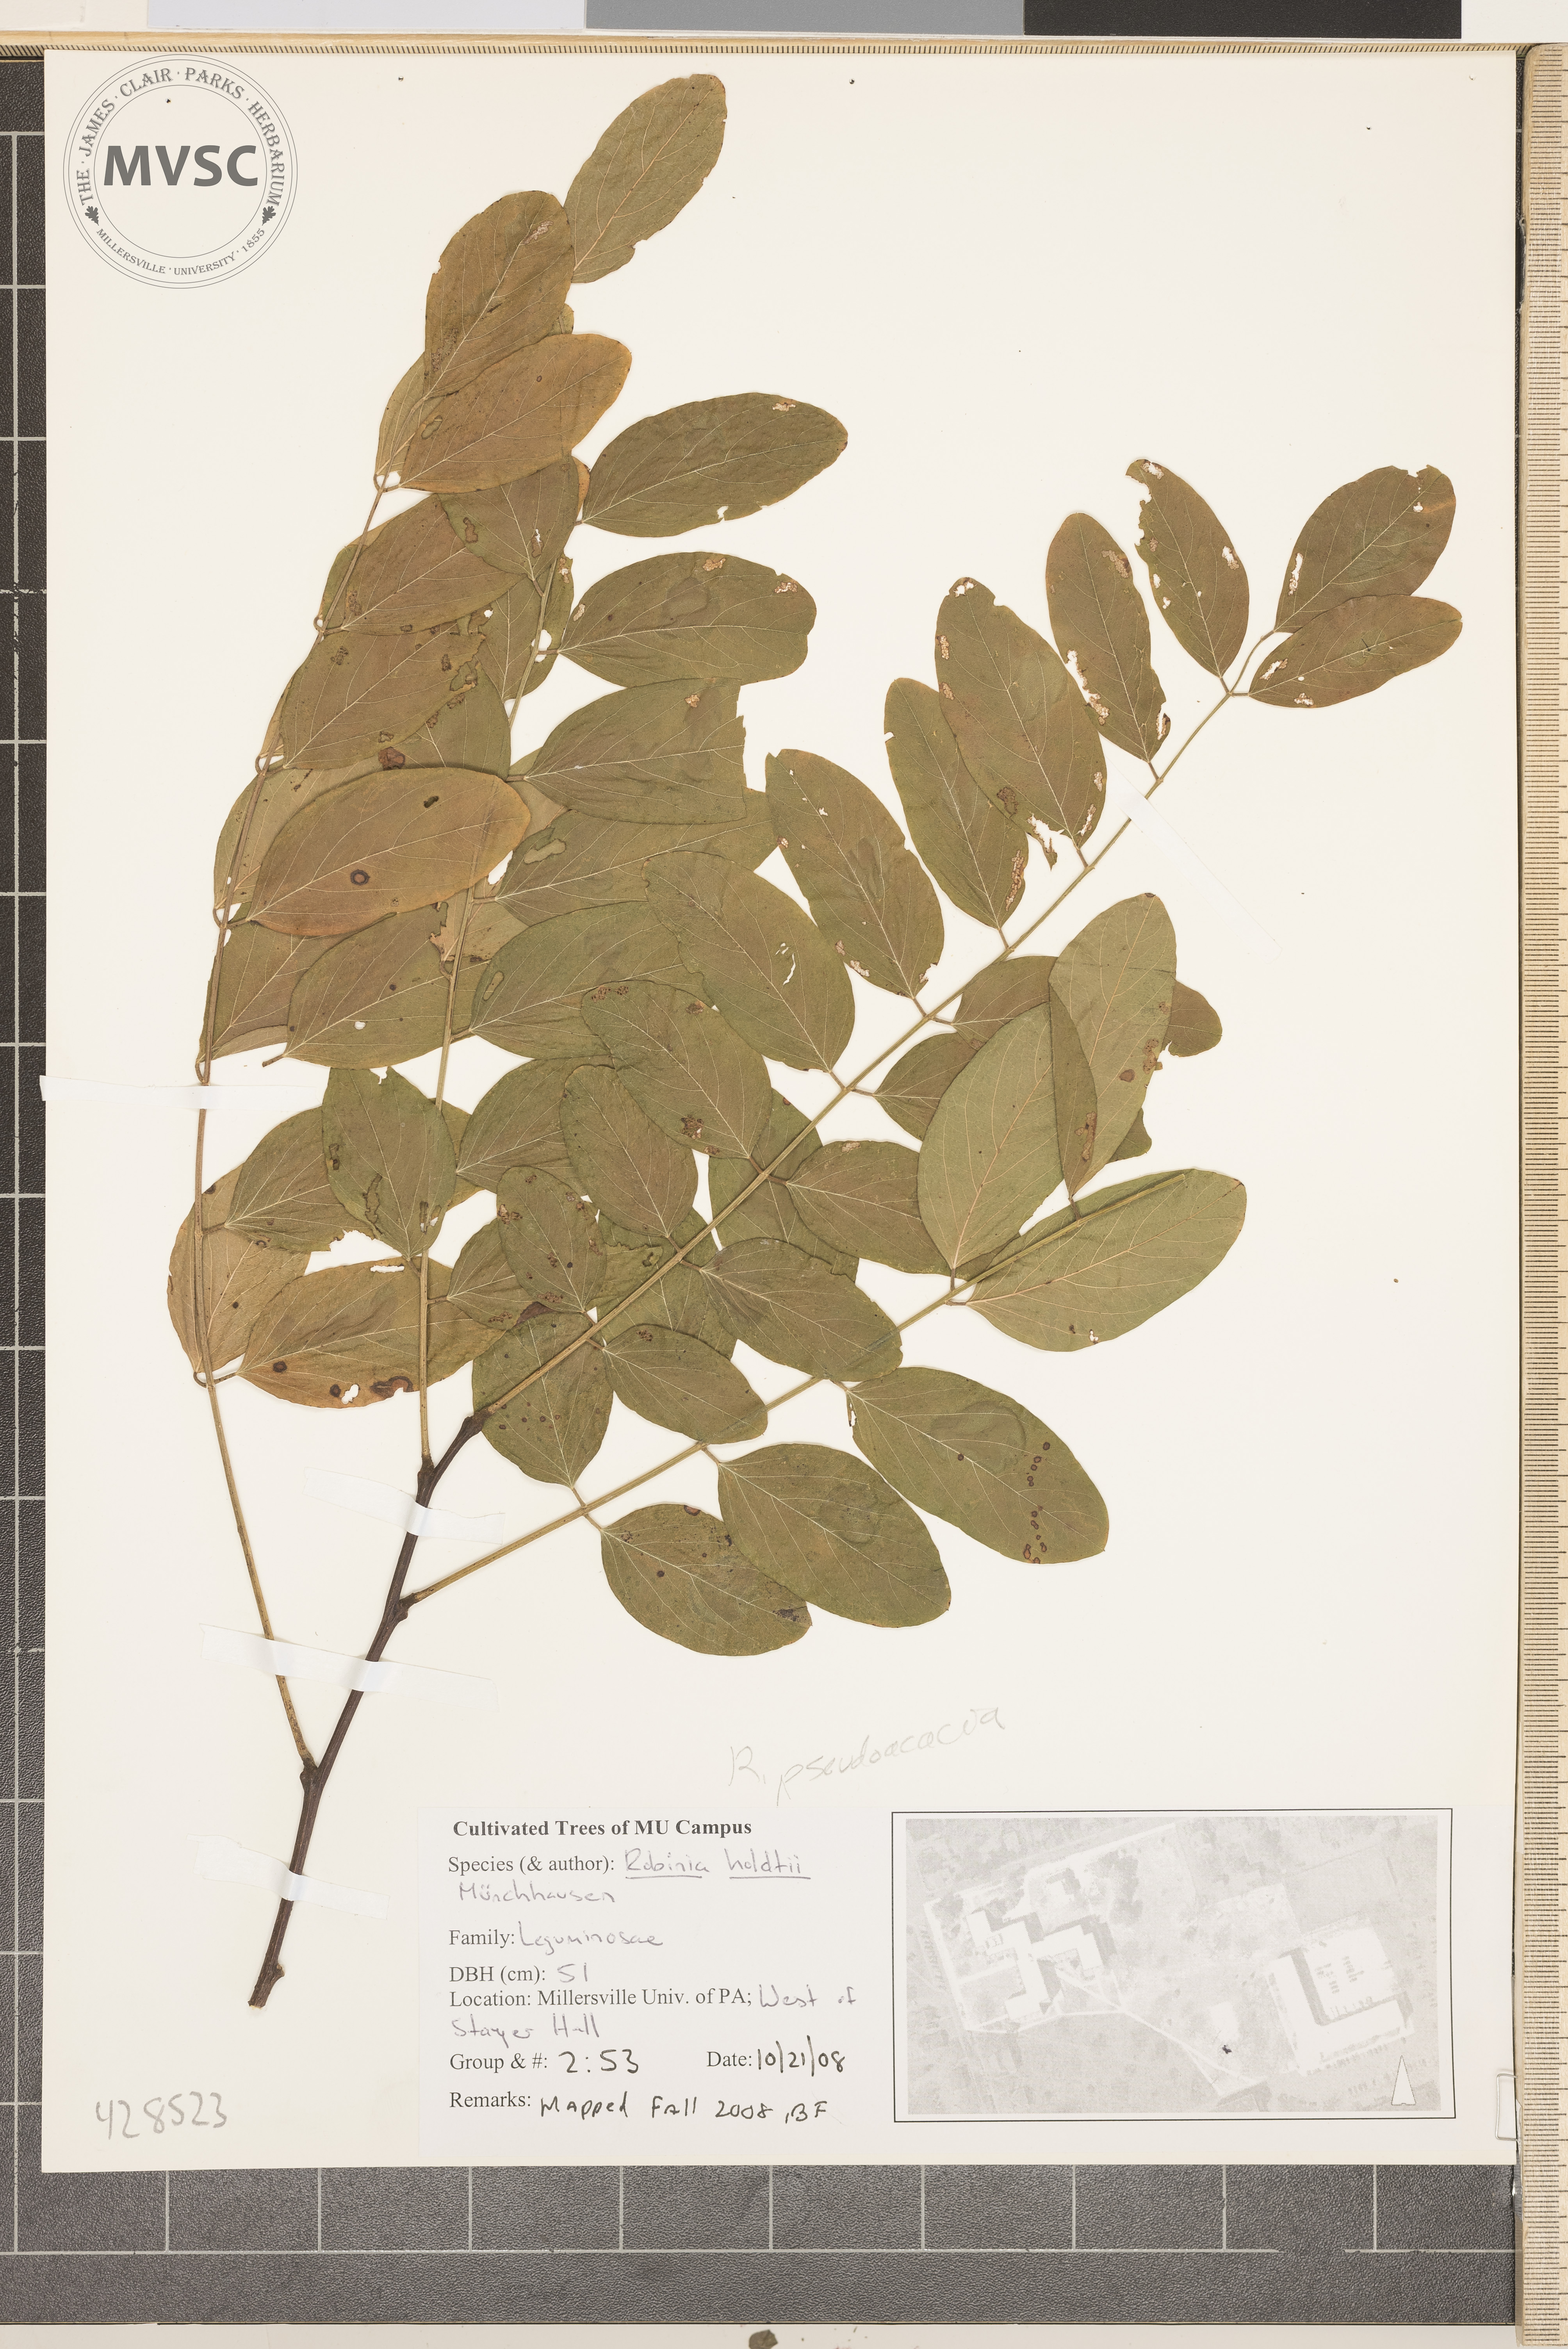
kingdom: Plantae
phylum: Tracheophyta
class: Magnoliopsida
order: Fabales
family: Fabaceae
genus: Robinia
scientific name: Robinia pseudoacacia
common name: Black locust
